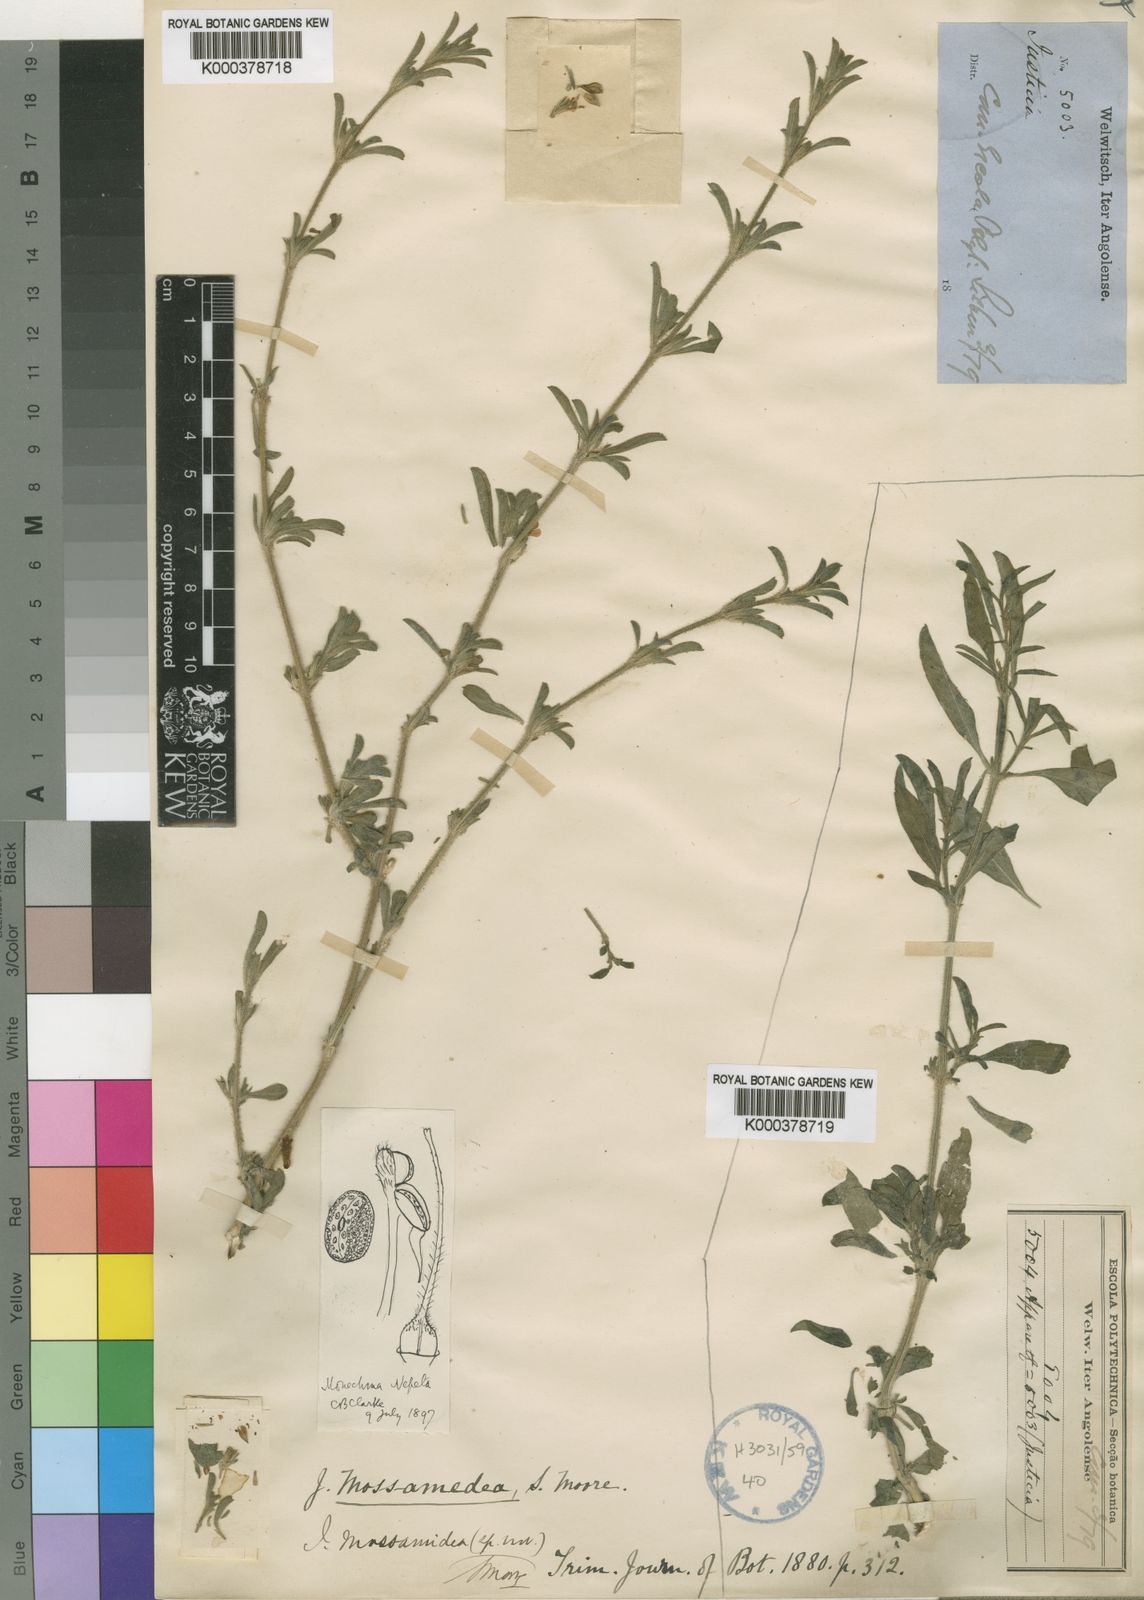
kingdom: Plantae
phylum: Tracheophyta
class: Magnoliopsida
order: Lamiales
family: Acanthaceae
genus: Monechma
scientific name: Monechma divaricatum
